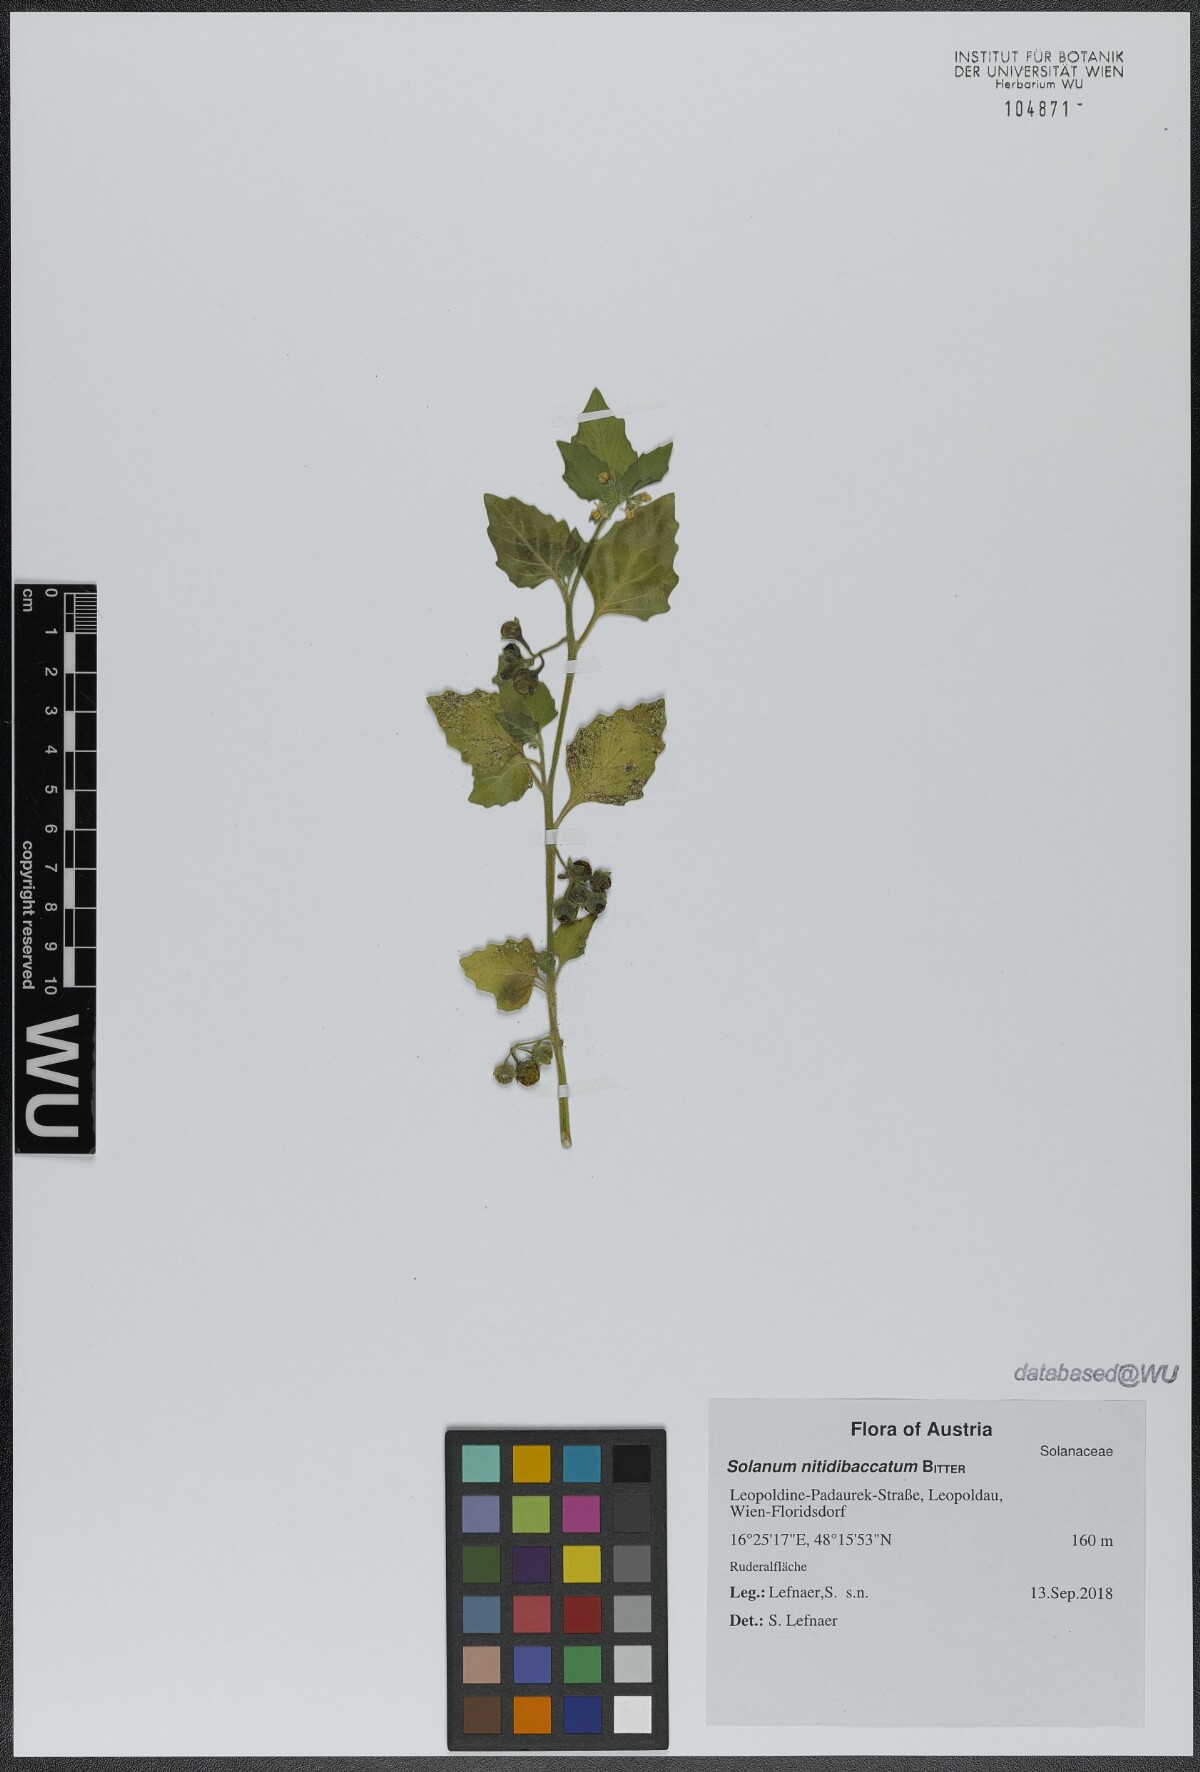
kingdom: Plantae
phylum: Tracheophyta
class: Magnoliopsida
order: Solanales
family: Solanaceae
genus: Solanum
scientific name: Solanum nitidibaccatum
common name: Hairy nightshade
